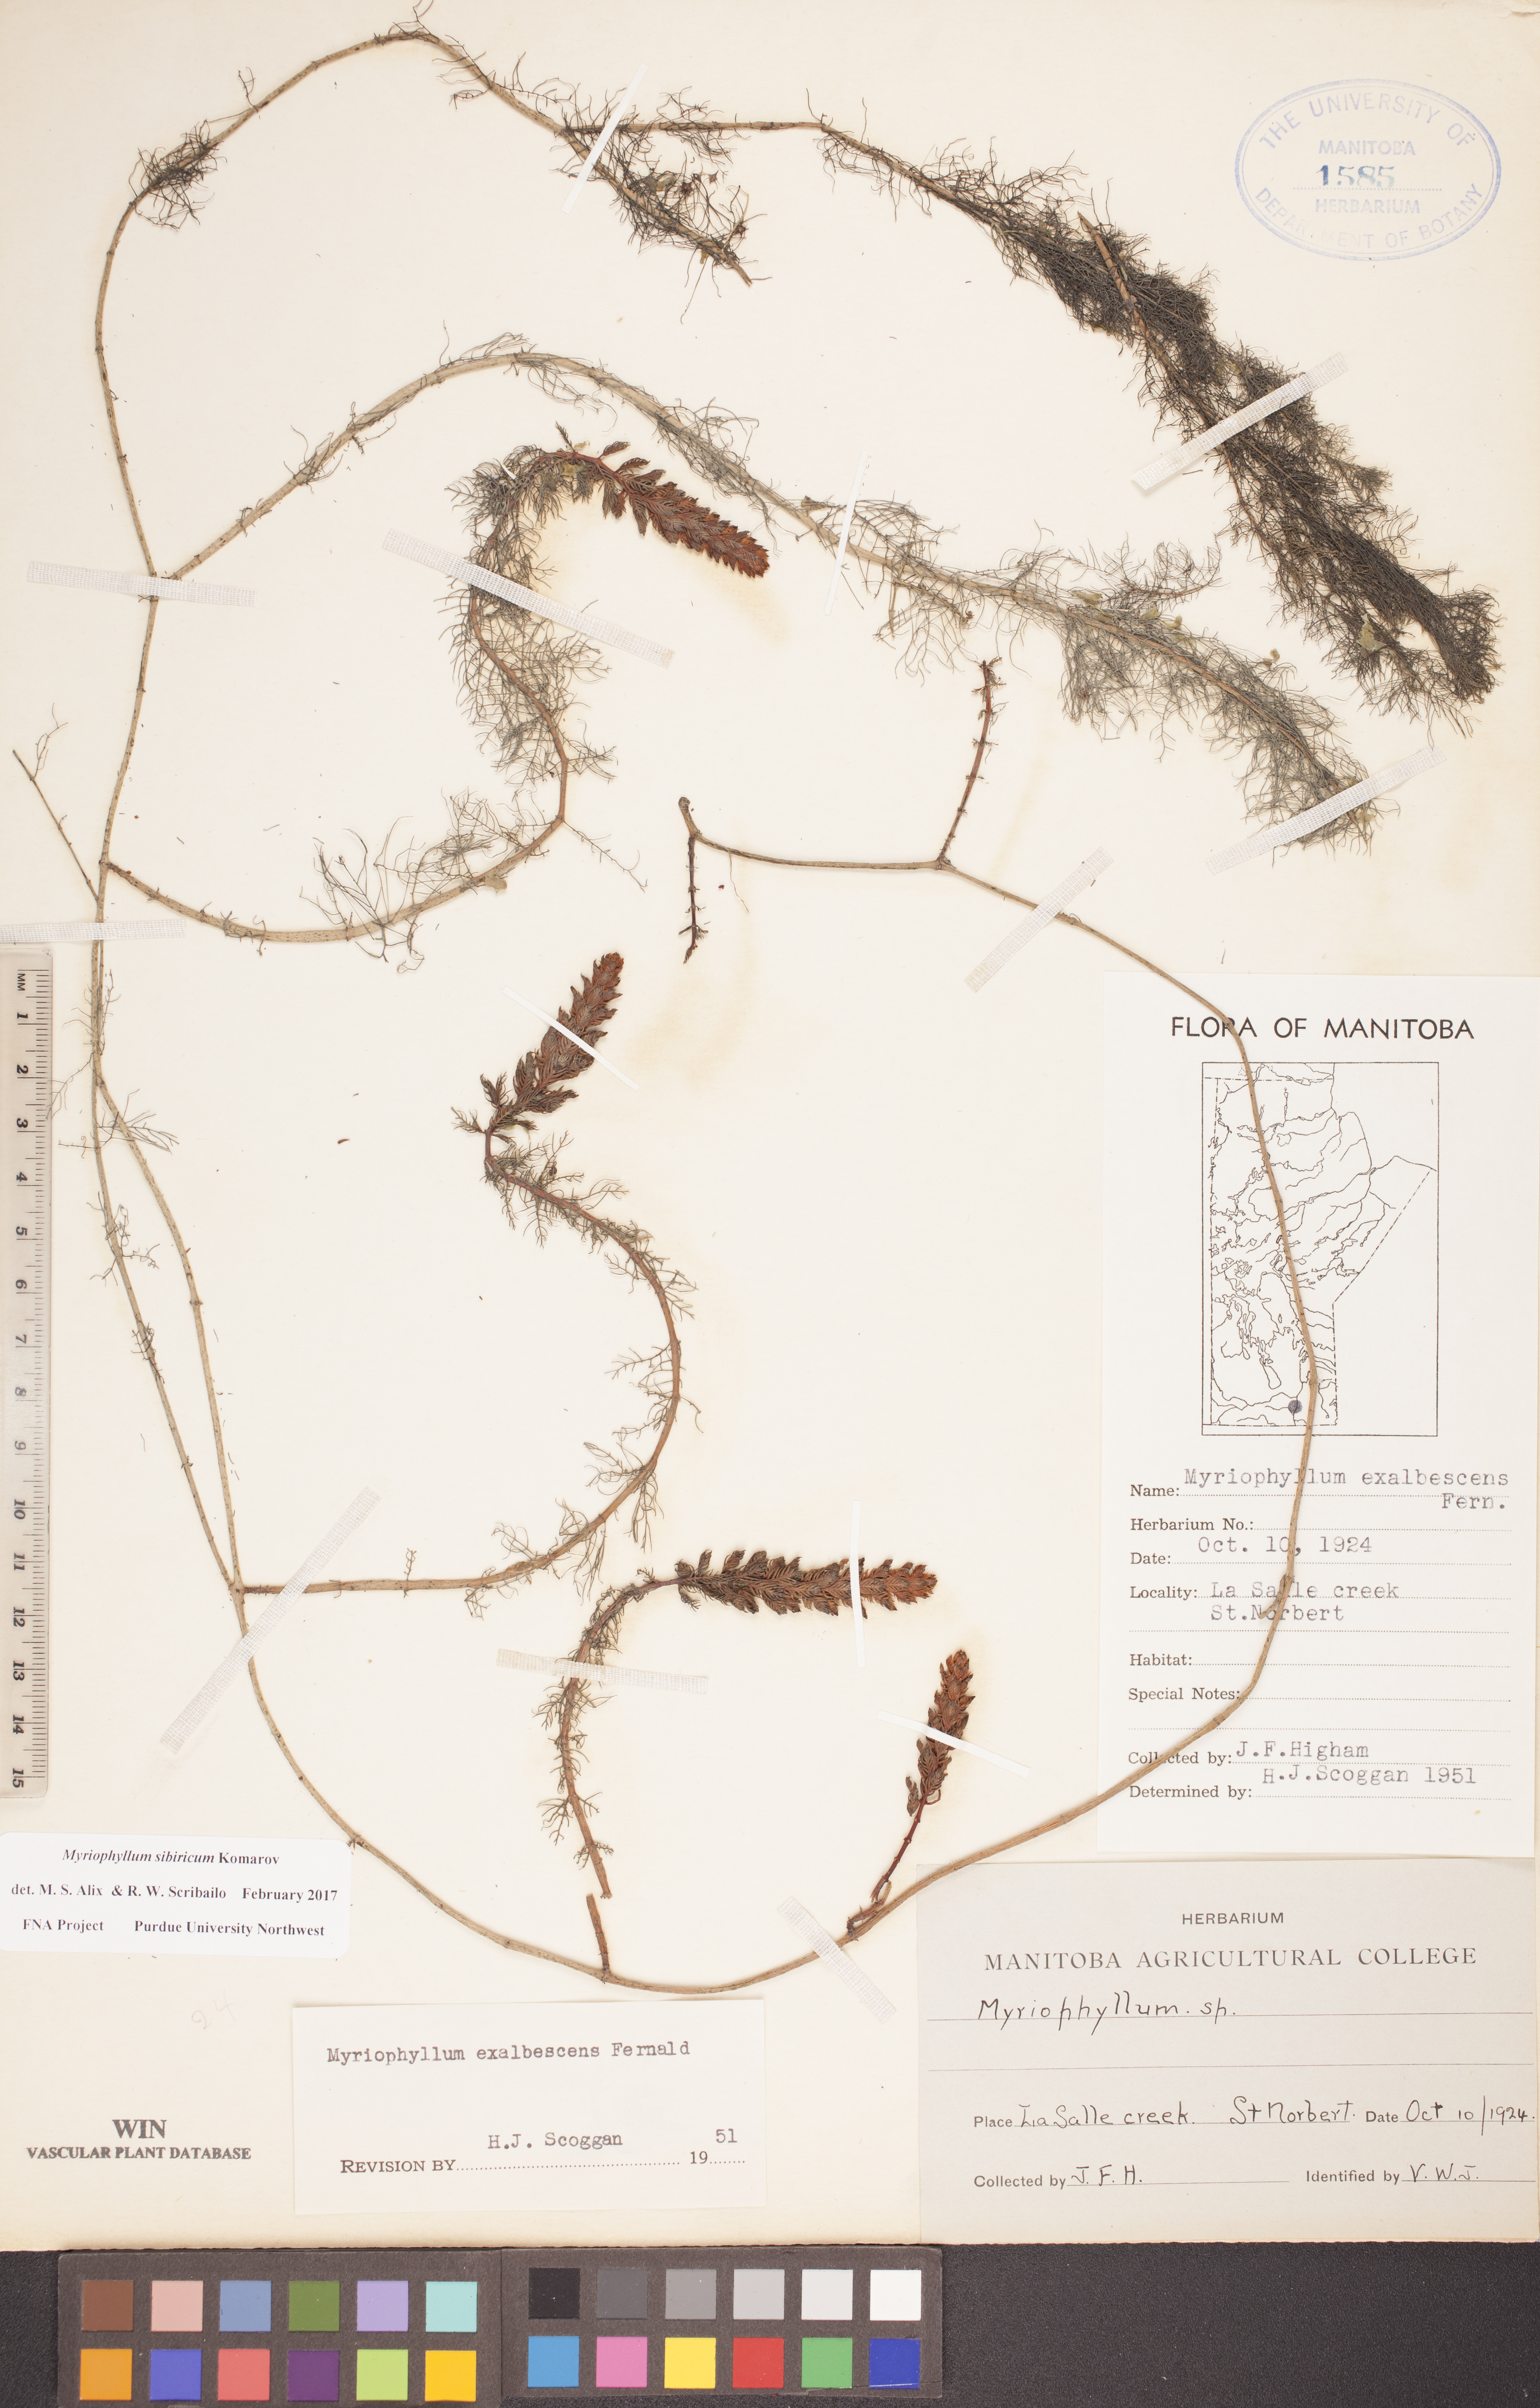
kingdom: Plantae
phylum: Tracheophyta
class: Magnoliopsida
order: Saxifragales
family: Haloragaceae
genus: Myriophyllum
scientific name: Myriophyllum sibiricum
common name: Siberian water-milfoil
